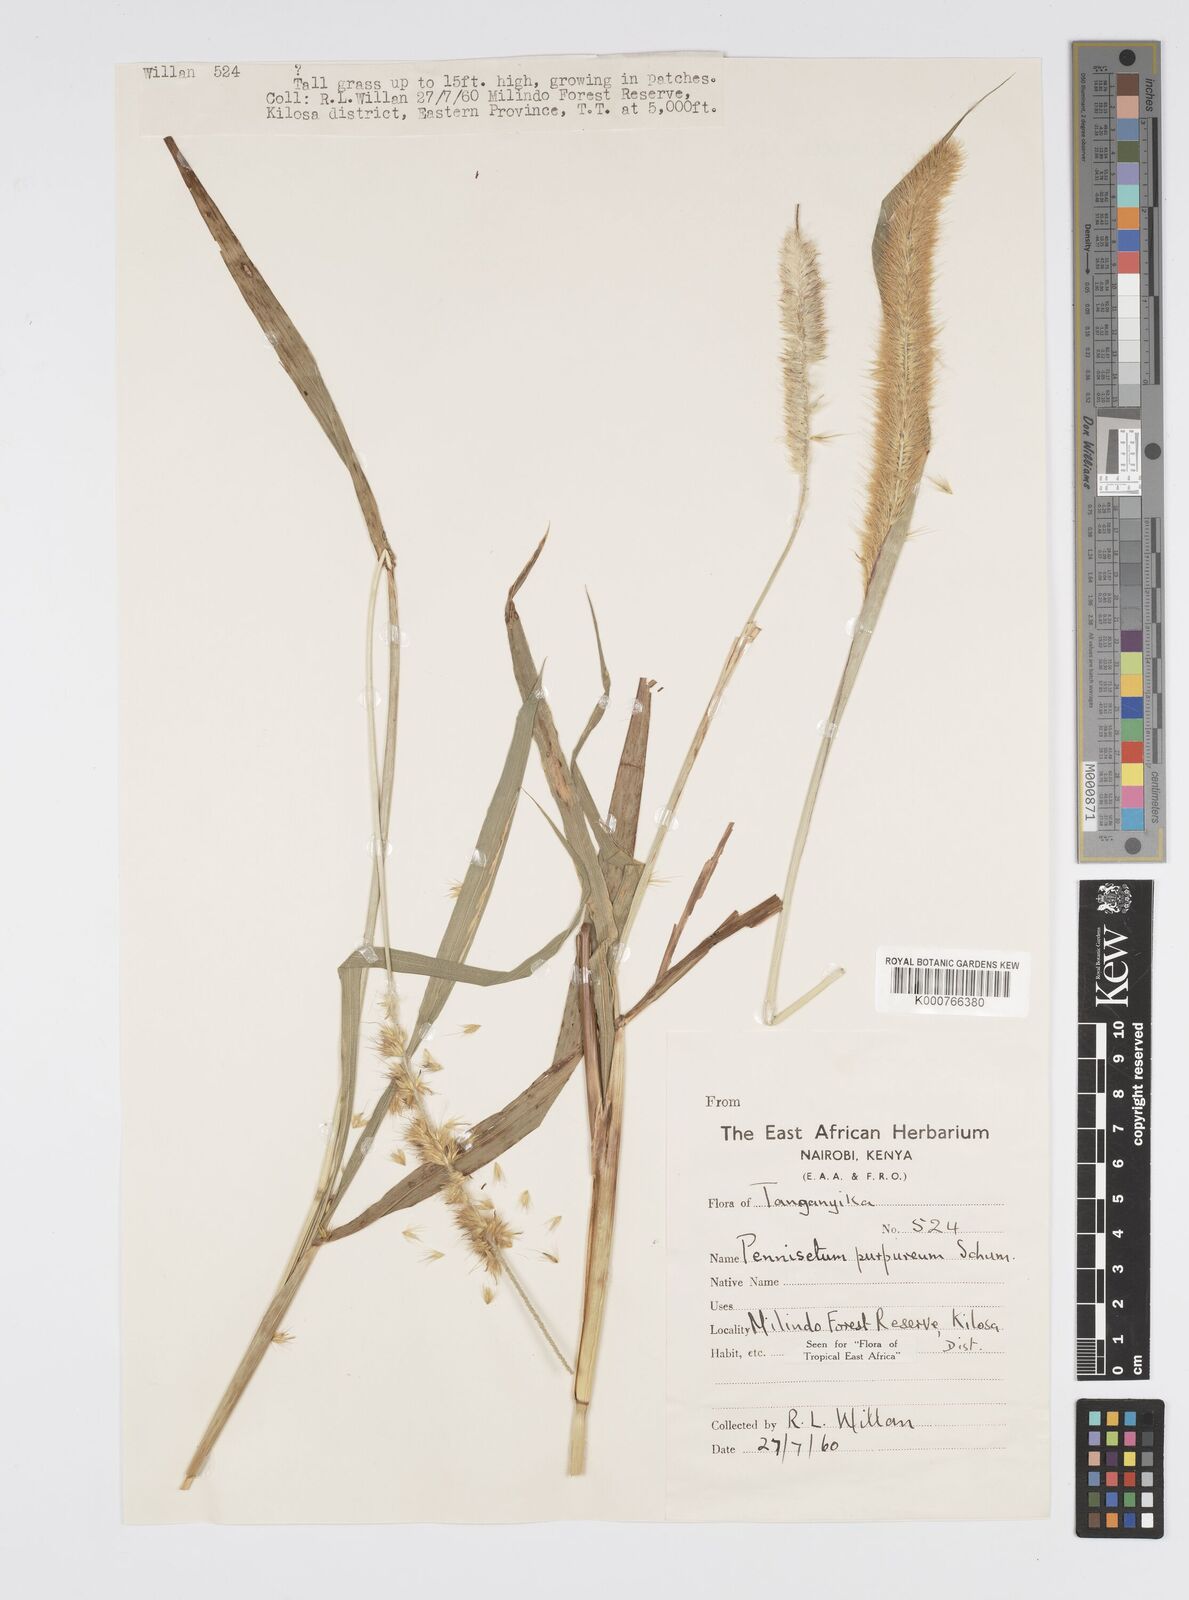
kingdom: Plantae
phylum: Tracheophyta
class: Liliopsida
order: Poales
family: Poaceae
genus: Cenchrus
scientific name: Cenchrus purpureus
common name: Elephant grass
